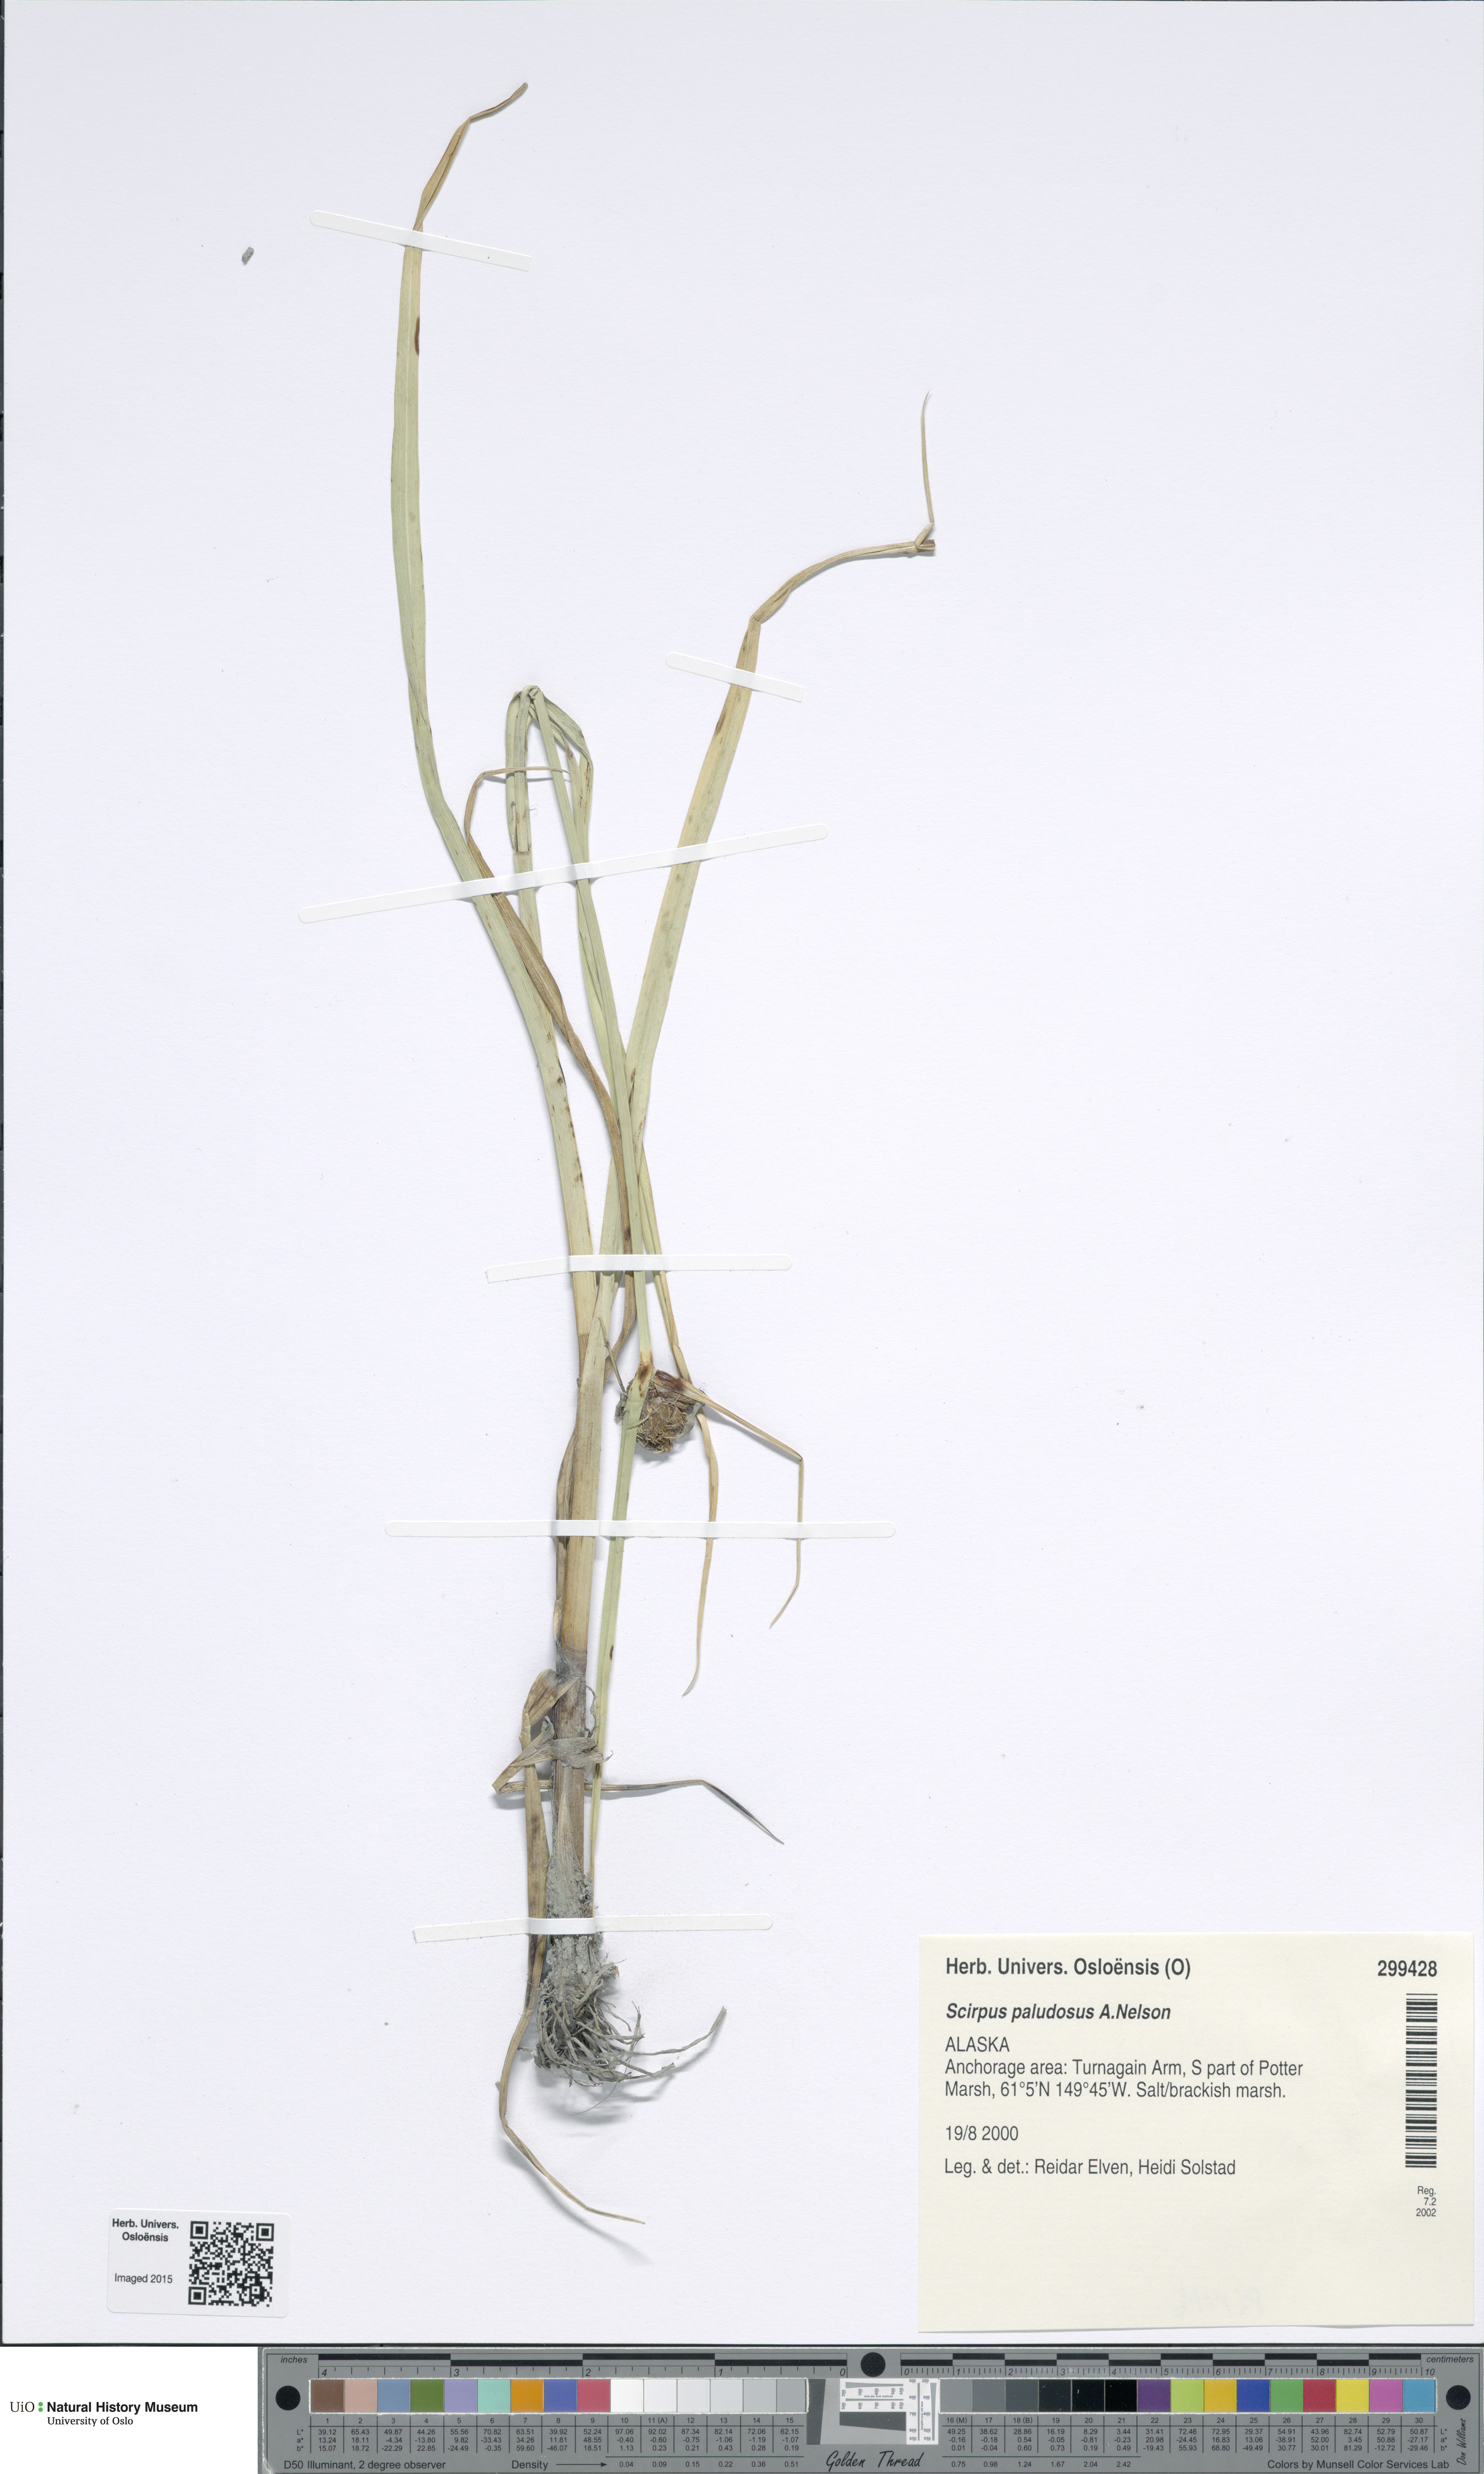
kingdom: Plantae
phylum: Tracheophyta
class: Liliopsida
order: Poales
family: Cyperaceae
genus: Bolboschoenus
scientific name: Bolboschoenus maritimus
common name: Sea club-rush
